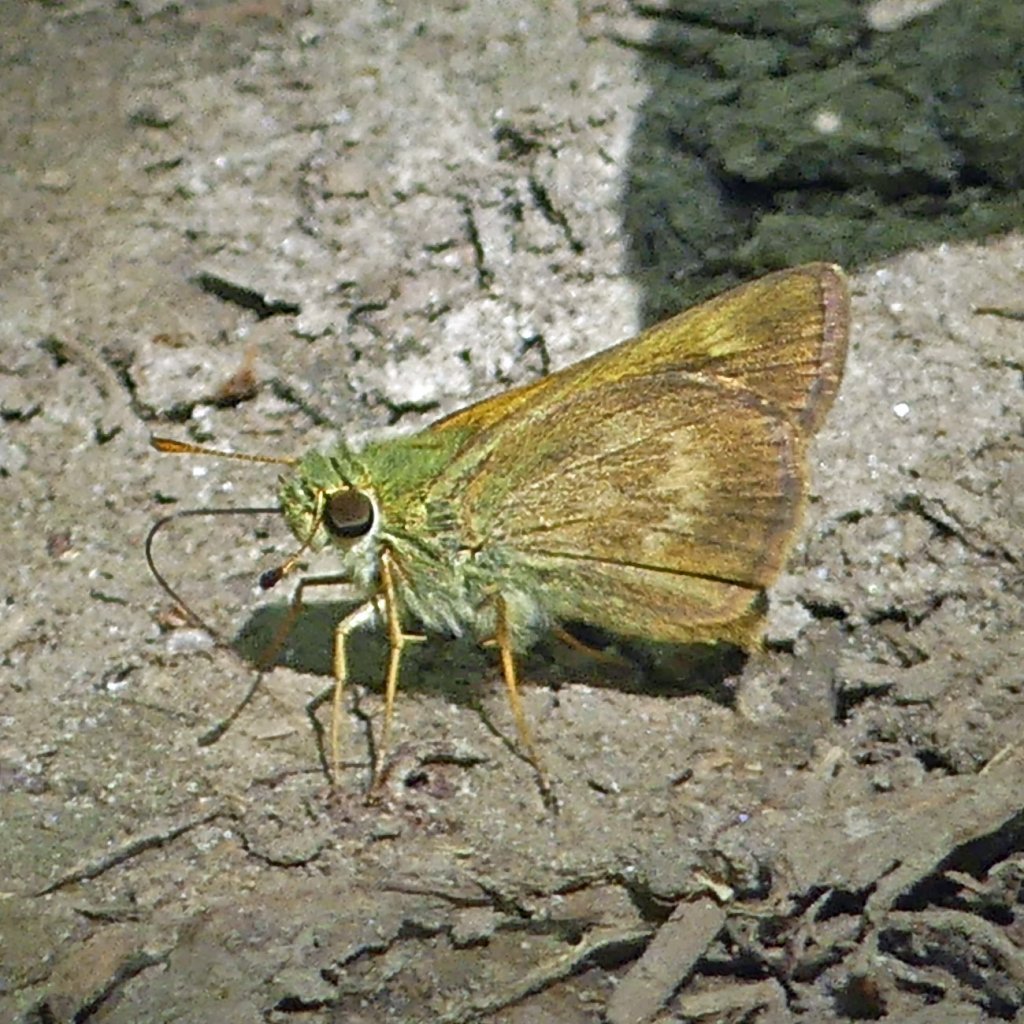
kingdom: Animalia
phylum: Arthropoda
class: Insecta
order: Lepidoptera
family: Hesperiidae
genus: Polites
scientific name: Polites egeremet
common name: Northern Broken-Dash
